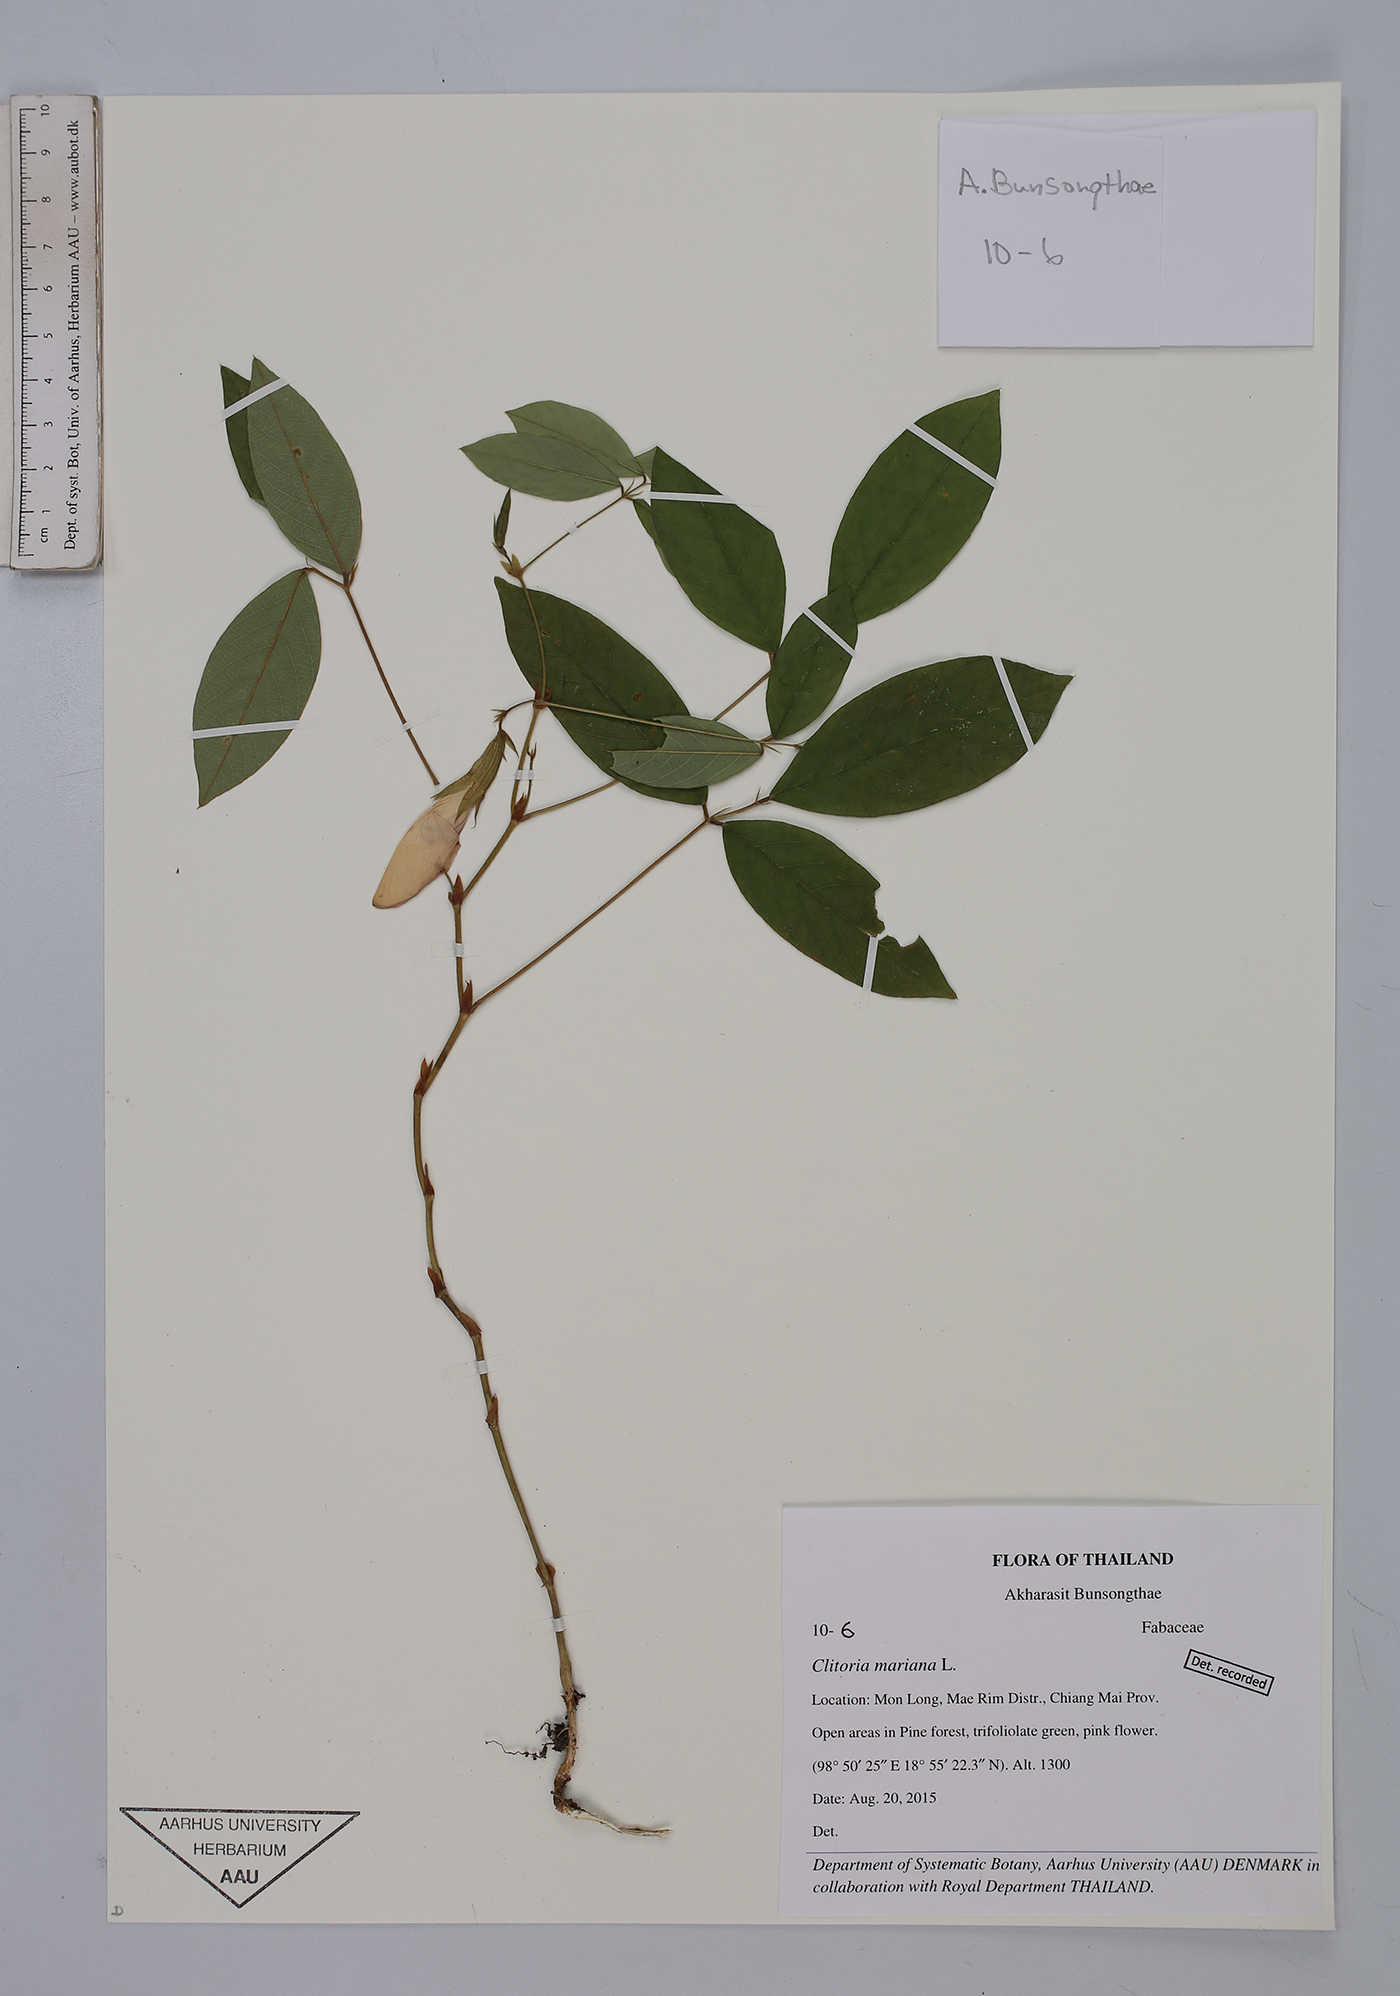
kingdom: Plantae
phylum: Tracheophyta
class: Magnoliopsida
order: Fabales
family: Fabaceae
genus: Clitoria
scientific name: Clitoria mariana
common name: Butterfly-pea
